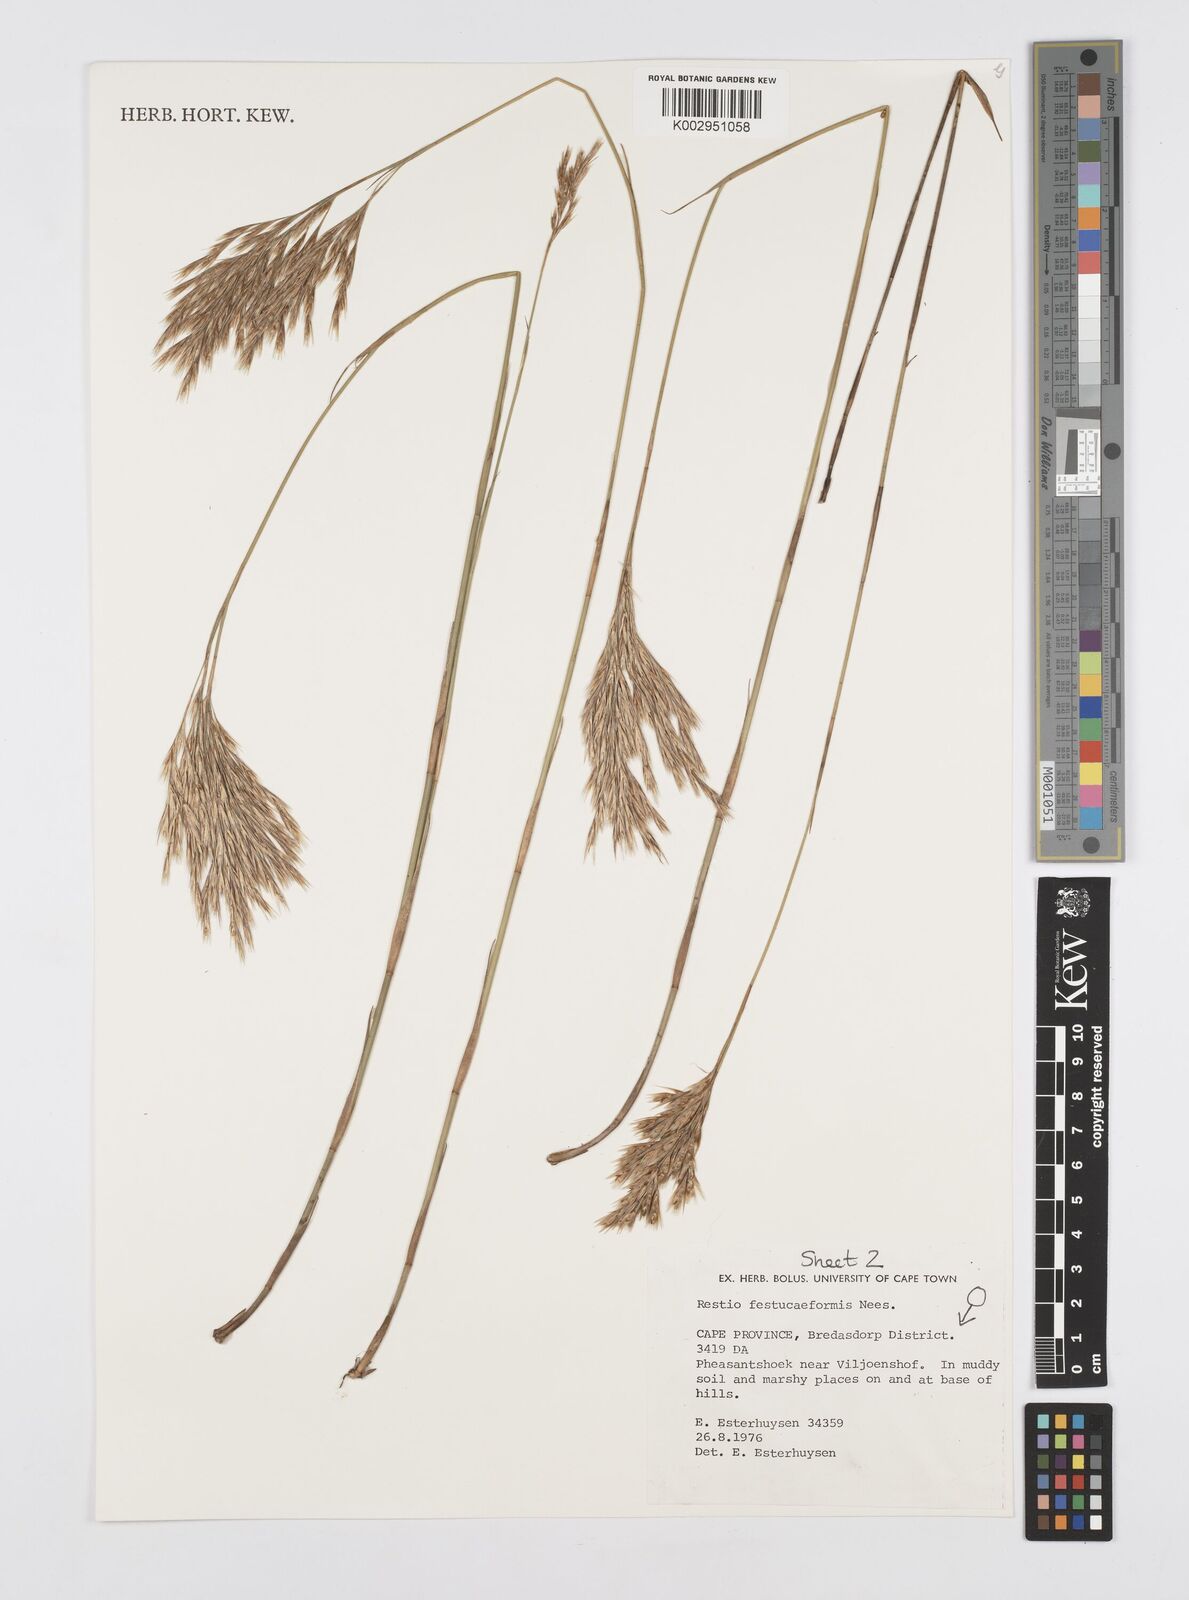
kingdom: Plantae
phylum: Tracheophyta
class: Liliopsida
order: Poales
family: Restionaceae
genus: Restio
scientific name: Restio festuciformis
